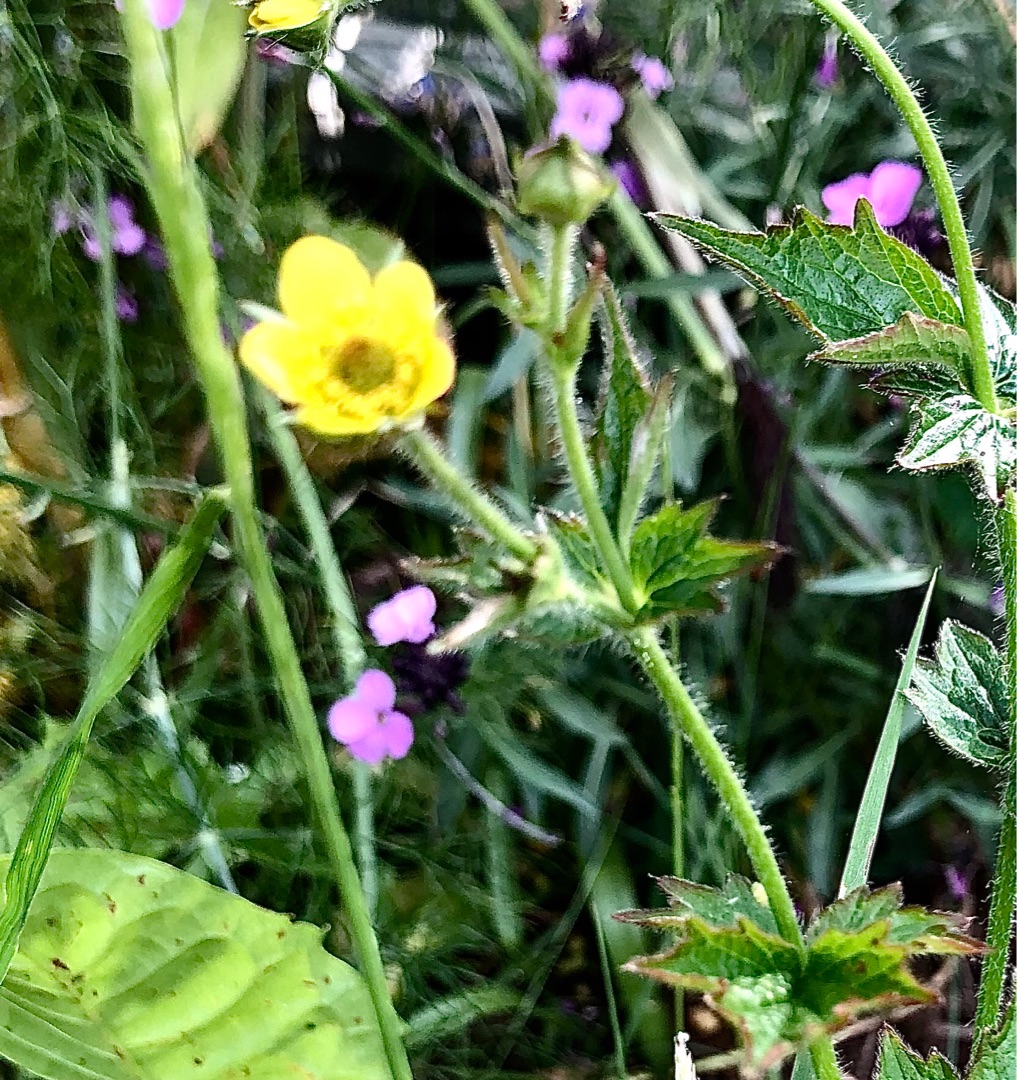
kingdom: Plantae
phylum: Tracheophyta
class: Magnoliopsida
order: Rosales
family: Rosaceae
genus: Geum
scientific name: Geum urbanum
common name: Feber-nellikerod
